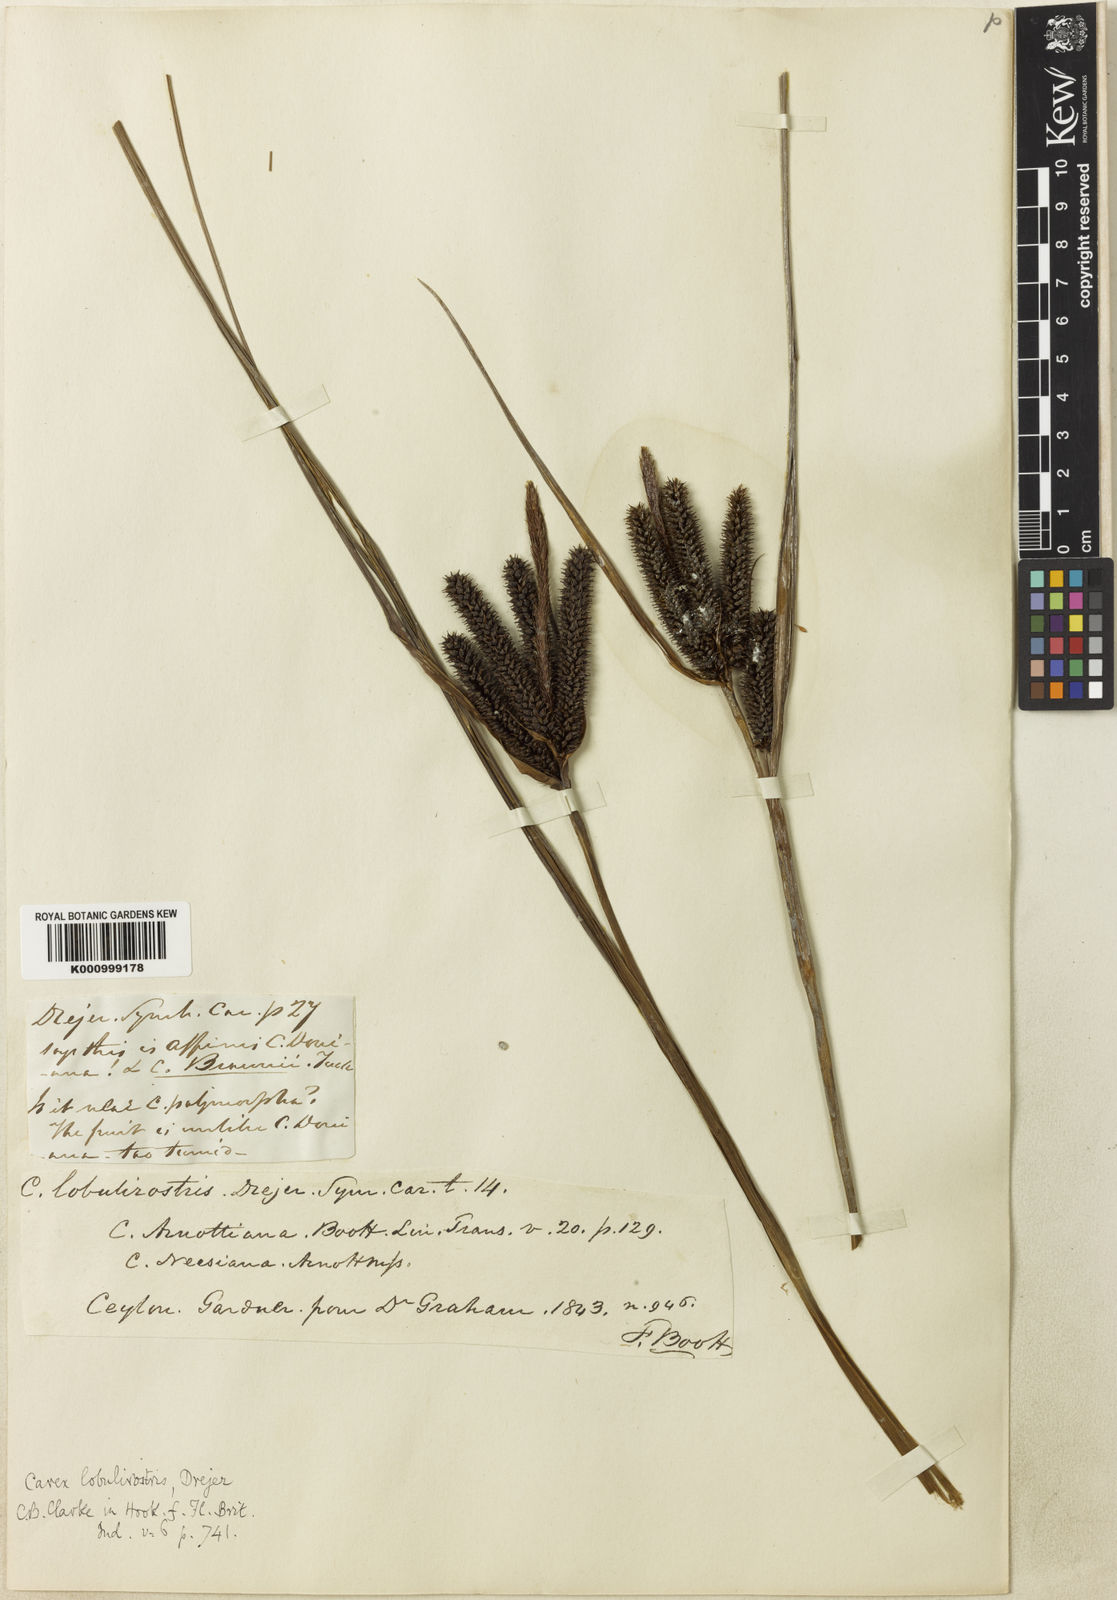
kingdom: Plantae
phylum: Tracheophyta
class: Liliopsida
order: Poales
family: Cyperaceae
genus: Carex
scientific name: Carex lobulirostris
